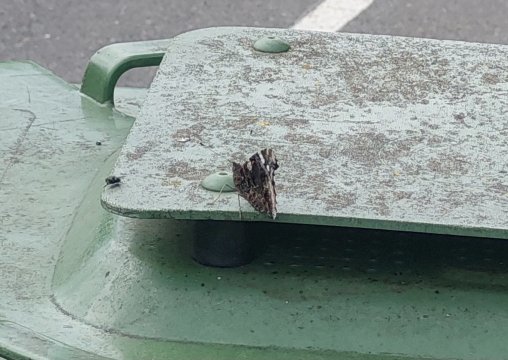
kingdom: Animalia
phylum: Arthropoda
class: Insecta
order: Lepidoptera
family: Nymphalidae
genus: Vanessa
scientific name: Vanessa atalanta
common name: Red Admiral
